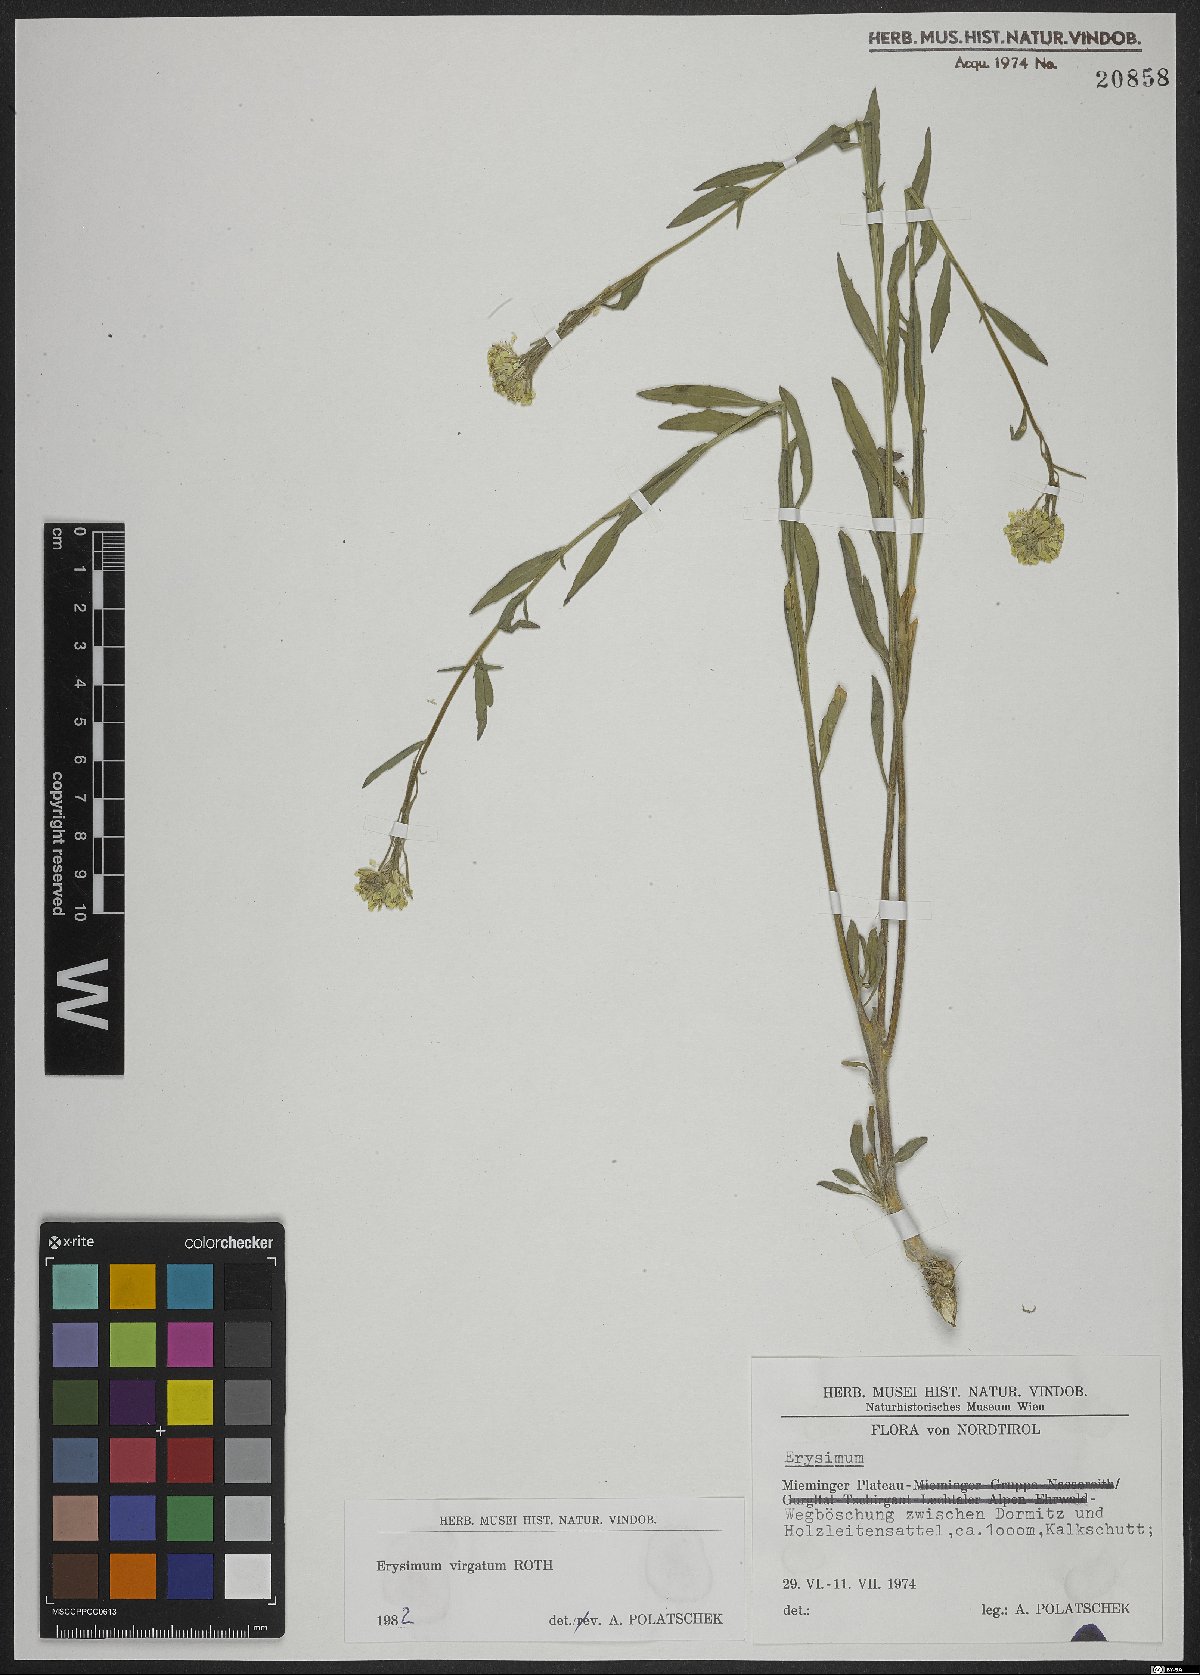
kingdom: Plantae
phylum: Tracheophyta
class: Magnoliopsida
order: Brassicales
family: Brassicaceae
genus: Erysimum
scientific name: Erysimum virgatum
